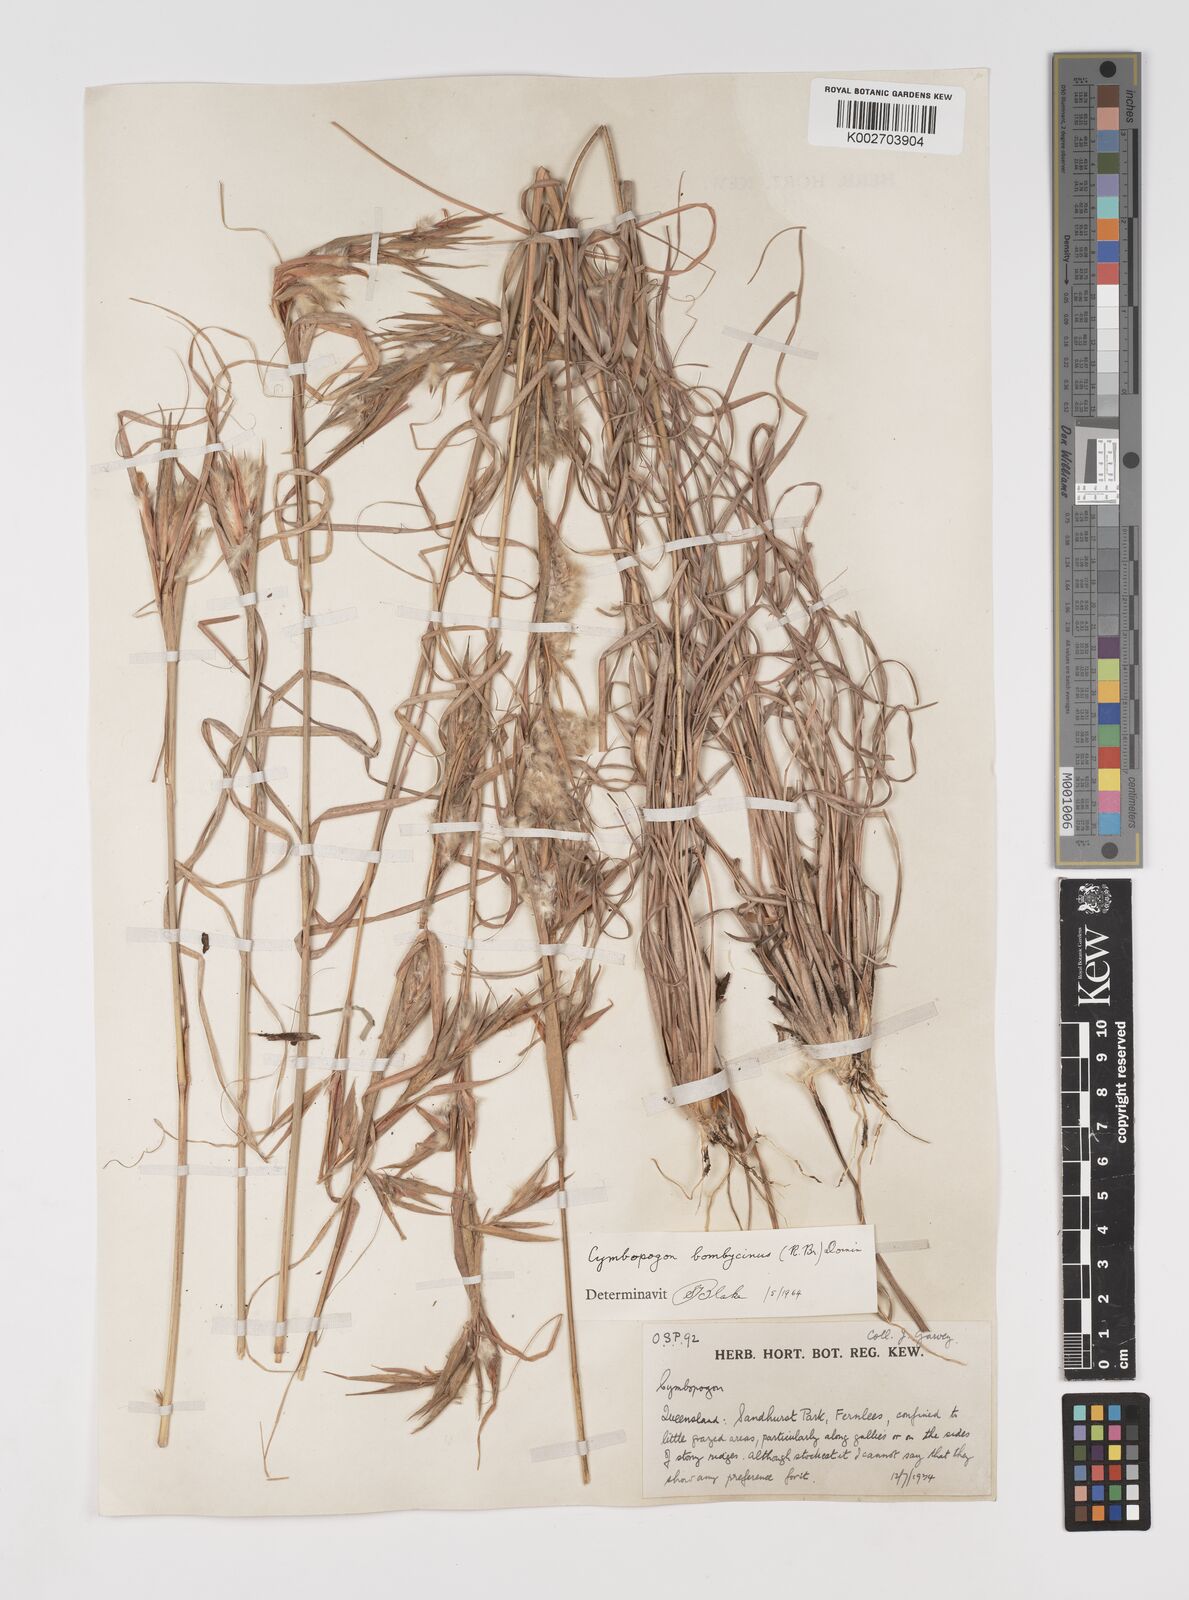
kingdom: Plantae
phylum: Tracheophyta
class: Liliopsida
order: Poales
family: Poaceae
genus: Cymbopogon
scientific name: Cymbopogon bombycinus
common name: Citronella grass
